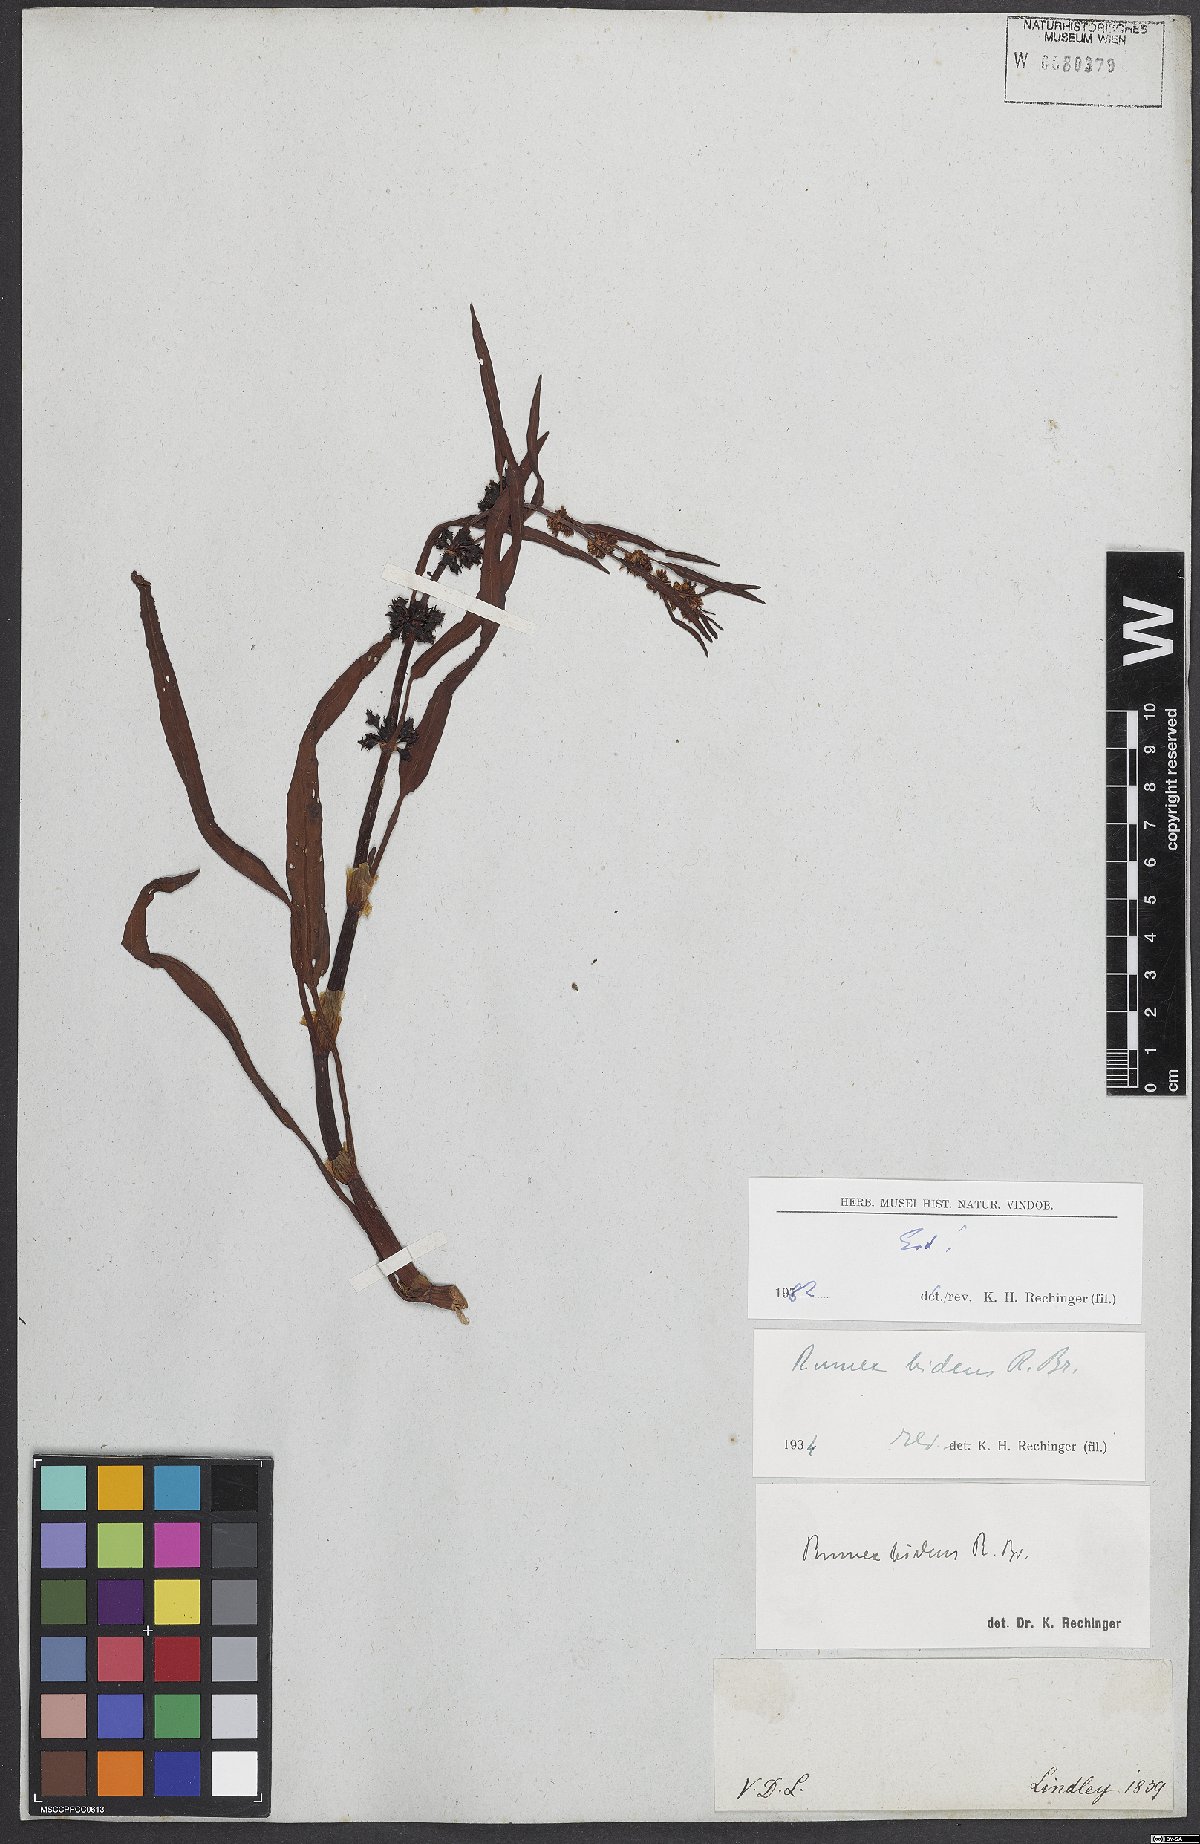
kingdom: Plantae
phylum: Tracheophyta
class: Magnoliopsida
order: Caryophyllales
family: Polygonaceae
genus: Rumex
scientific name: Rumex
